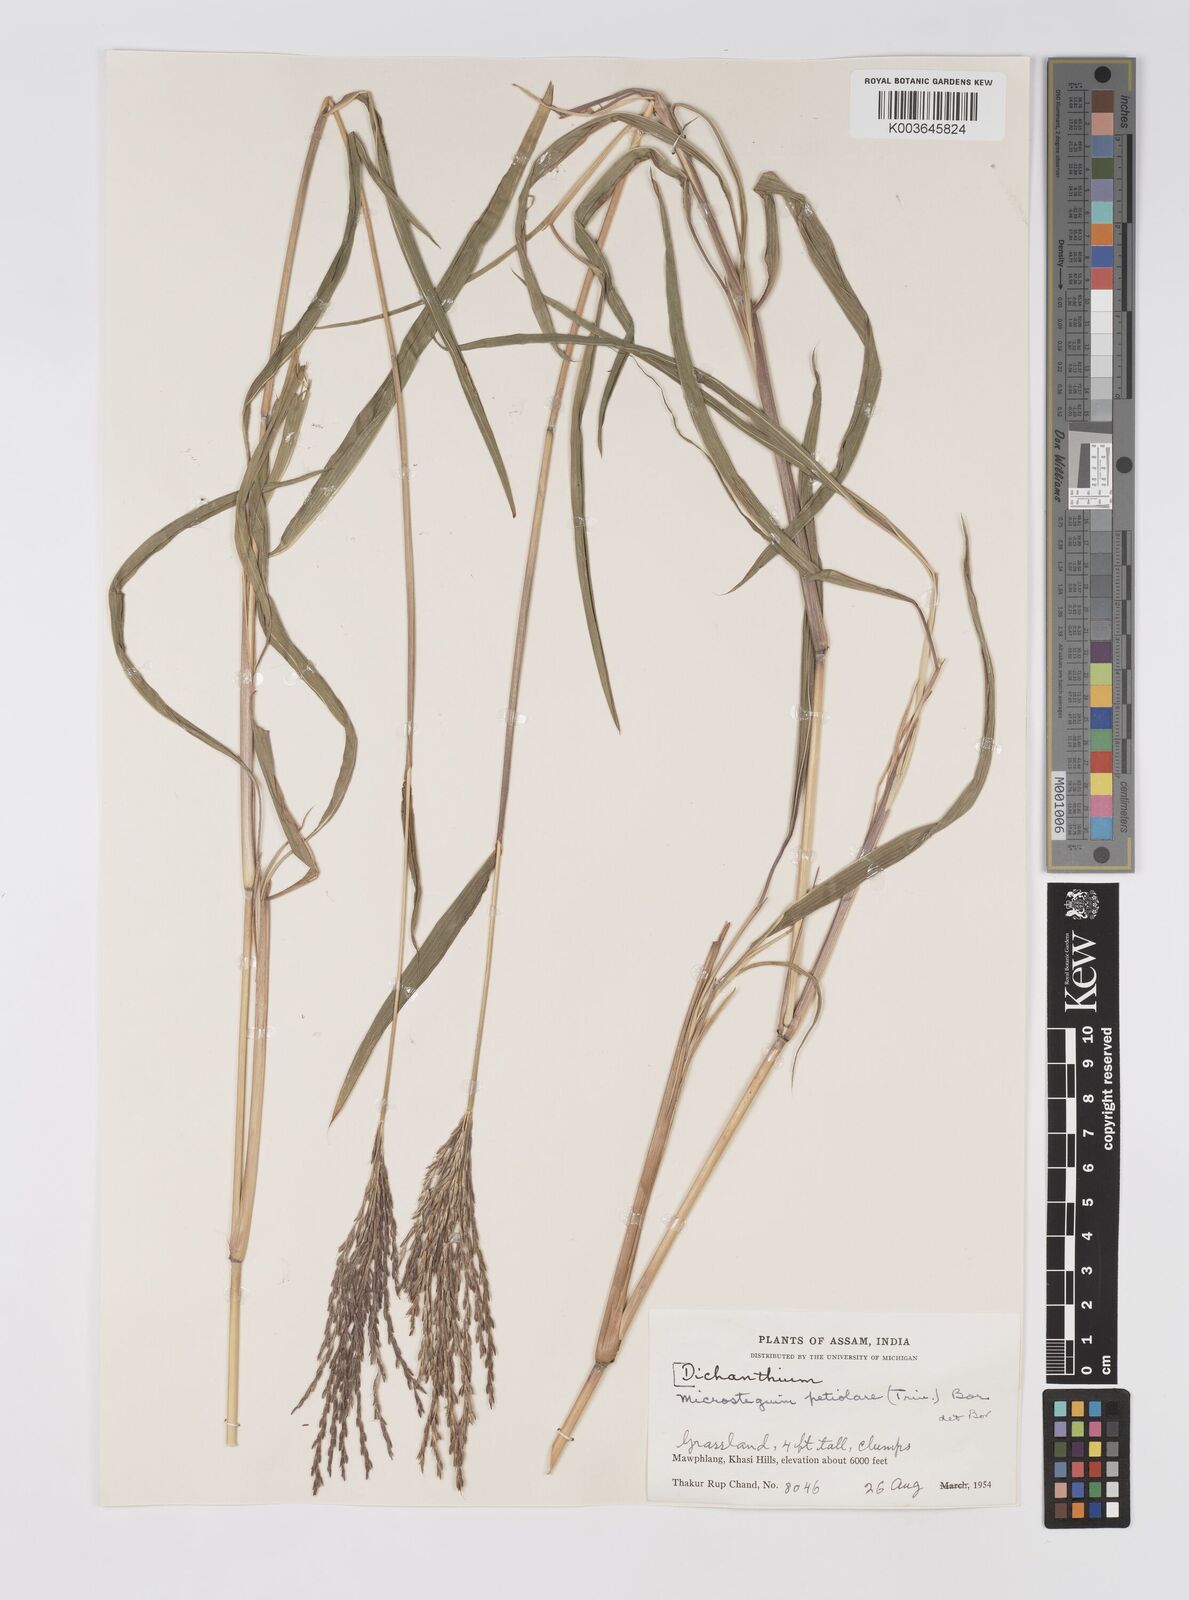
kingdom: Plantae
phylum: Tracheophyta
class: Liliopsida
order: Poales
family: Poaceae
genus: Microstegium
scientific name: Microstegium petiolare
